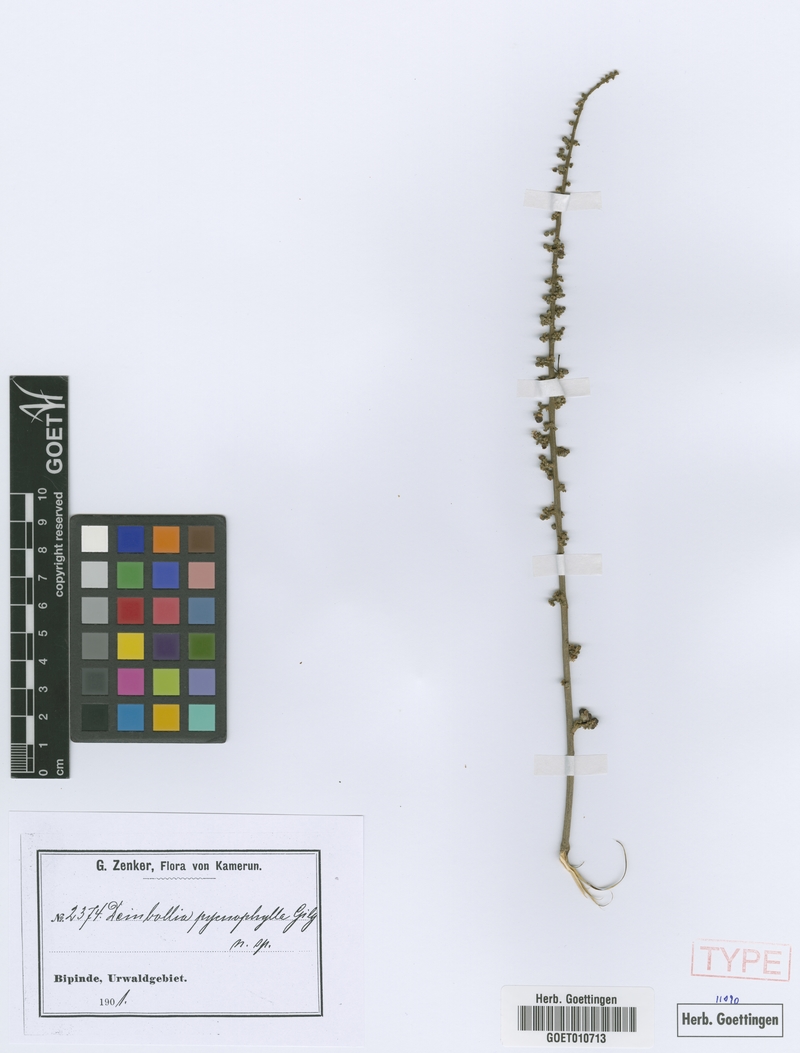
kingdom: Plantae
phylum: Tracheophyta
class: Magnoliopsida
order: Sapindales
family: Sapindaceae
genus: Deinbollia
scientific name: Deinbollia pycnophylla
